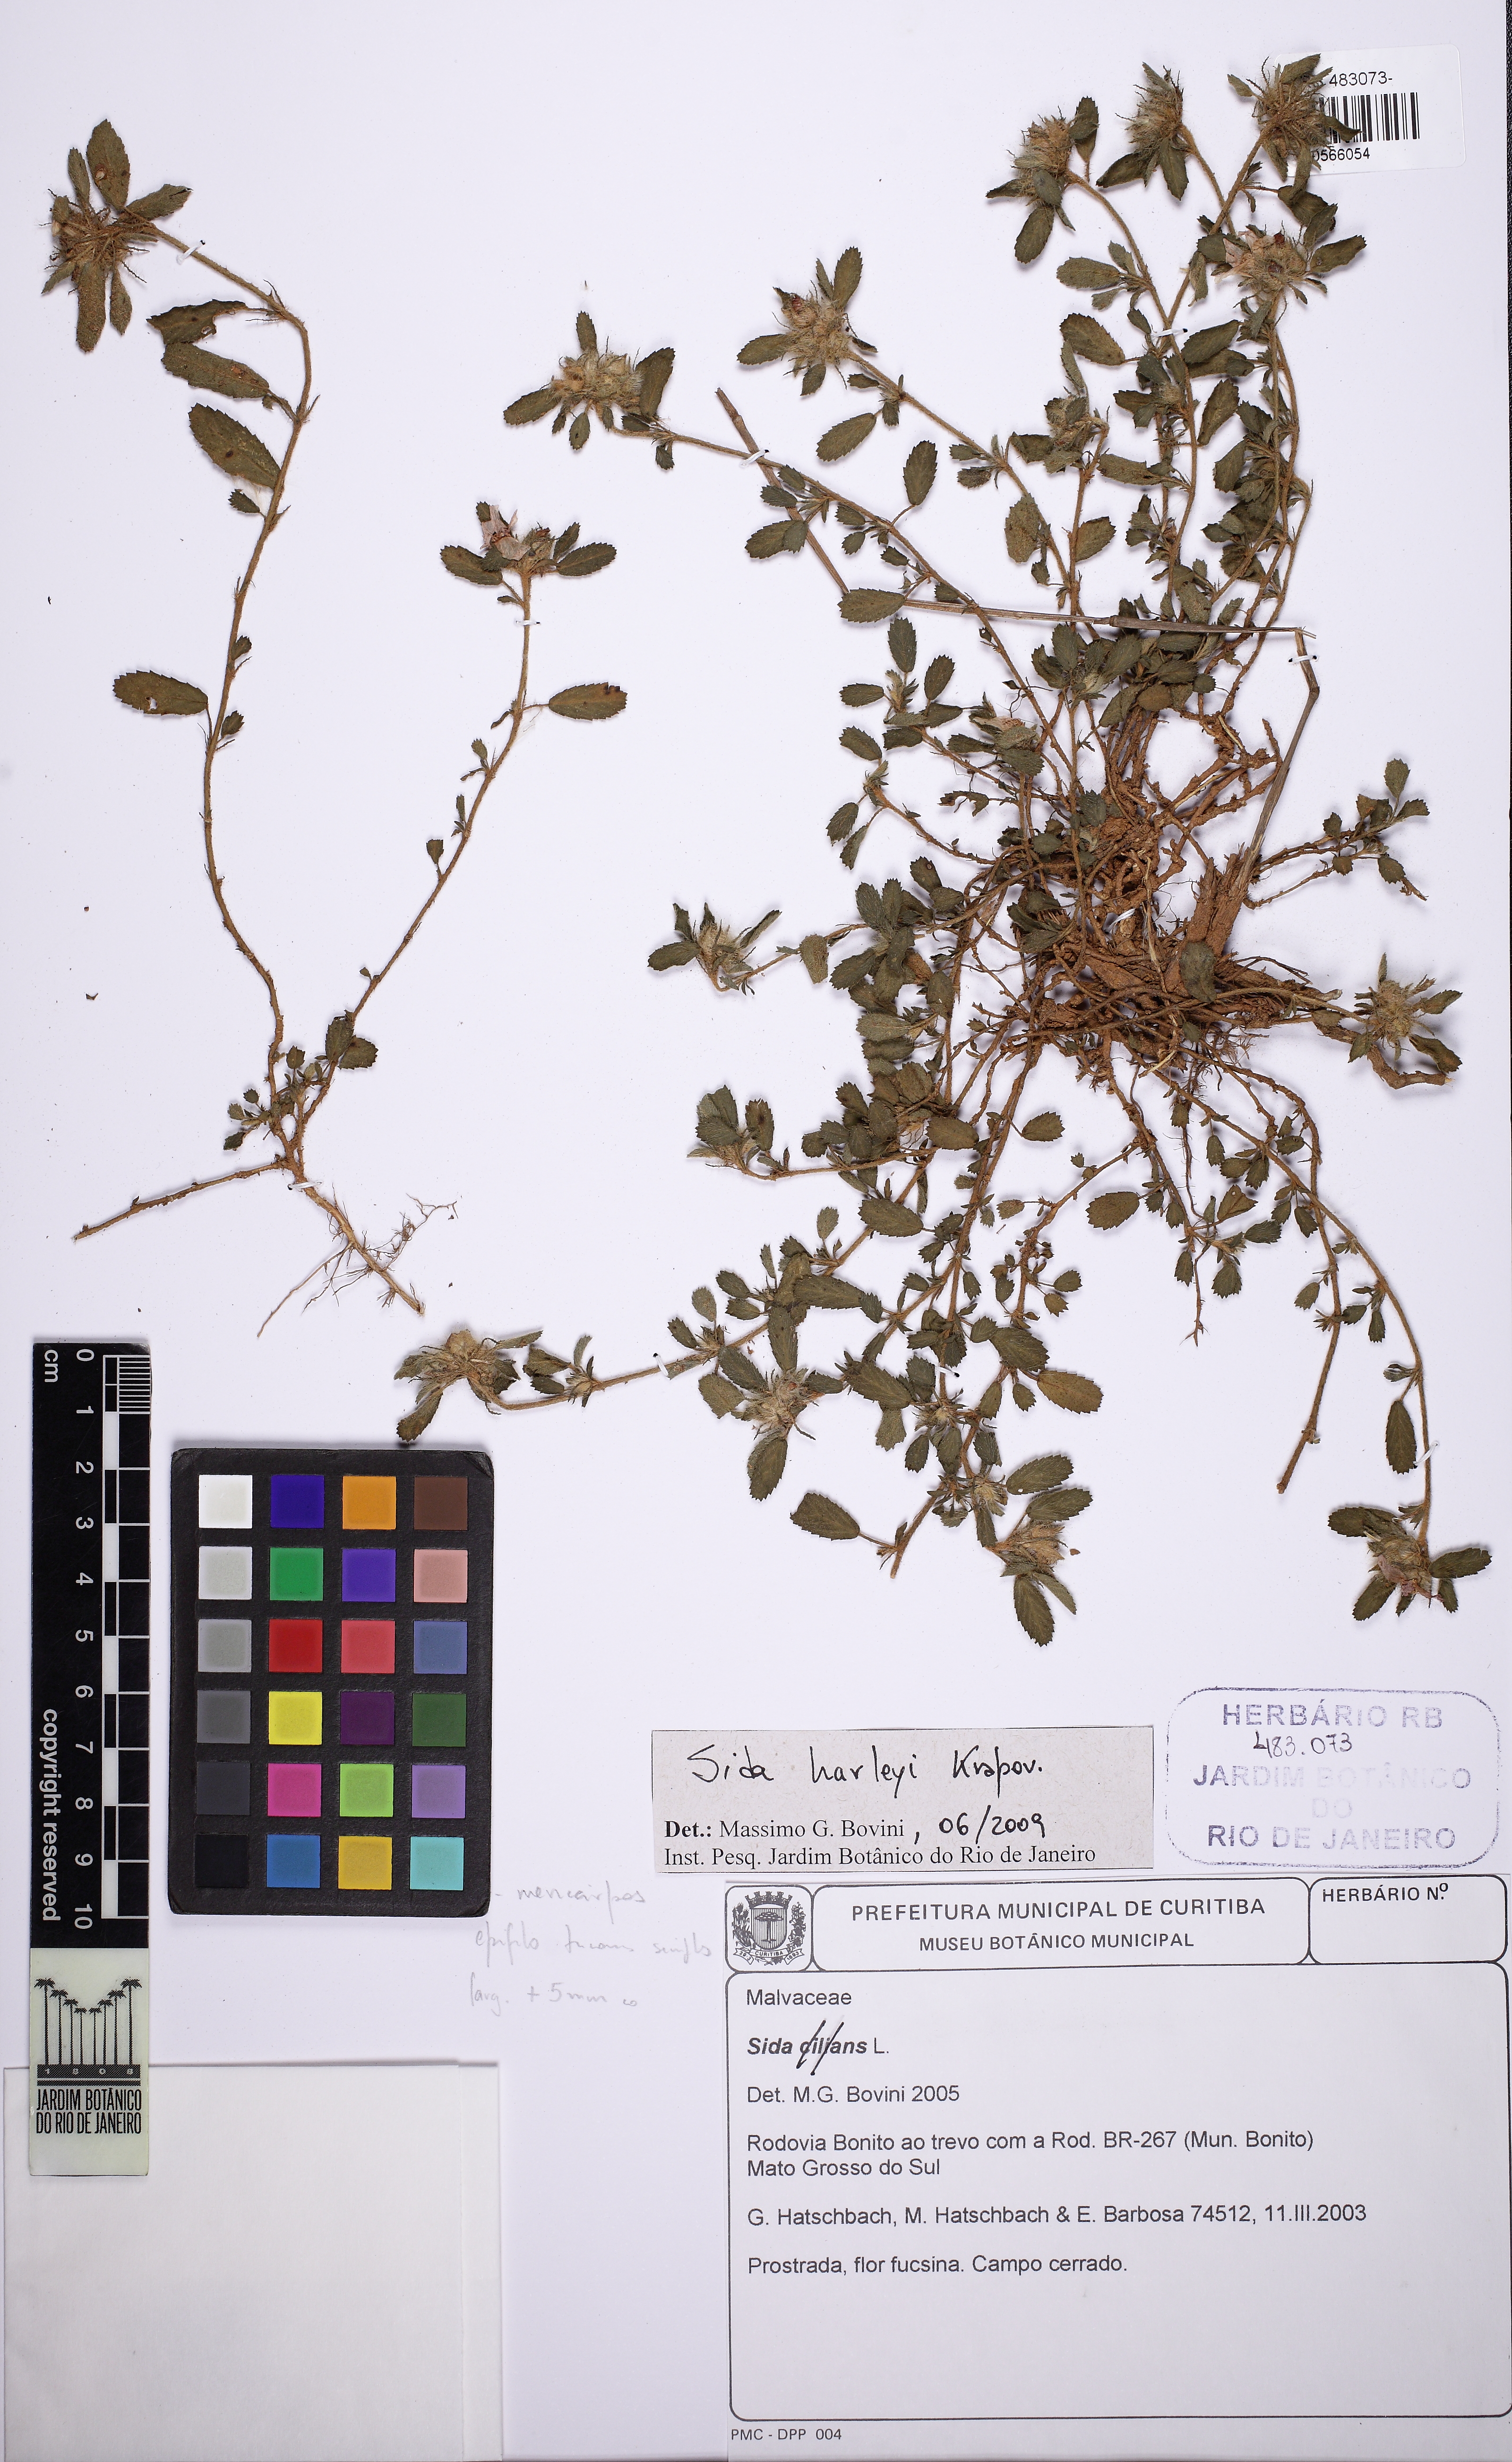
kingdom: Plantae
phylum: Tracheophyta
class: Magnoliopsida
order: Malvales
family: Malvaceae
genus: Sida
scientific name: Sida harleyi
